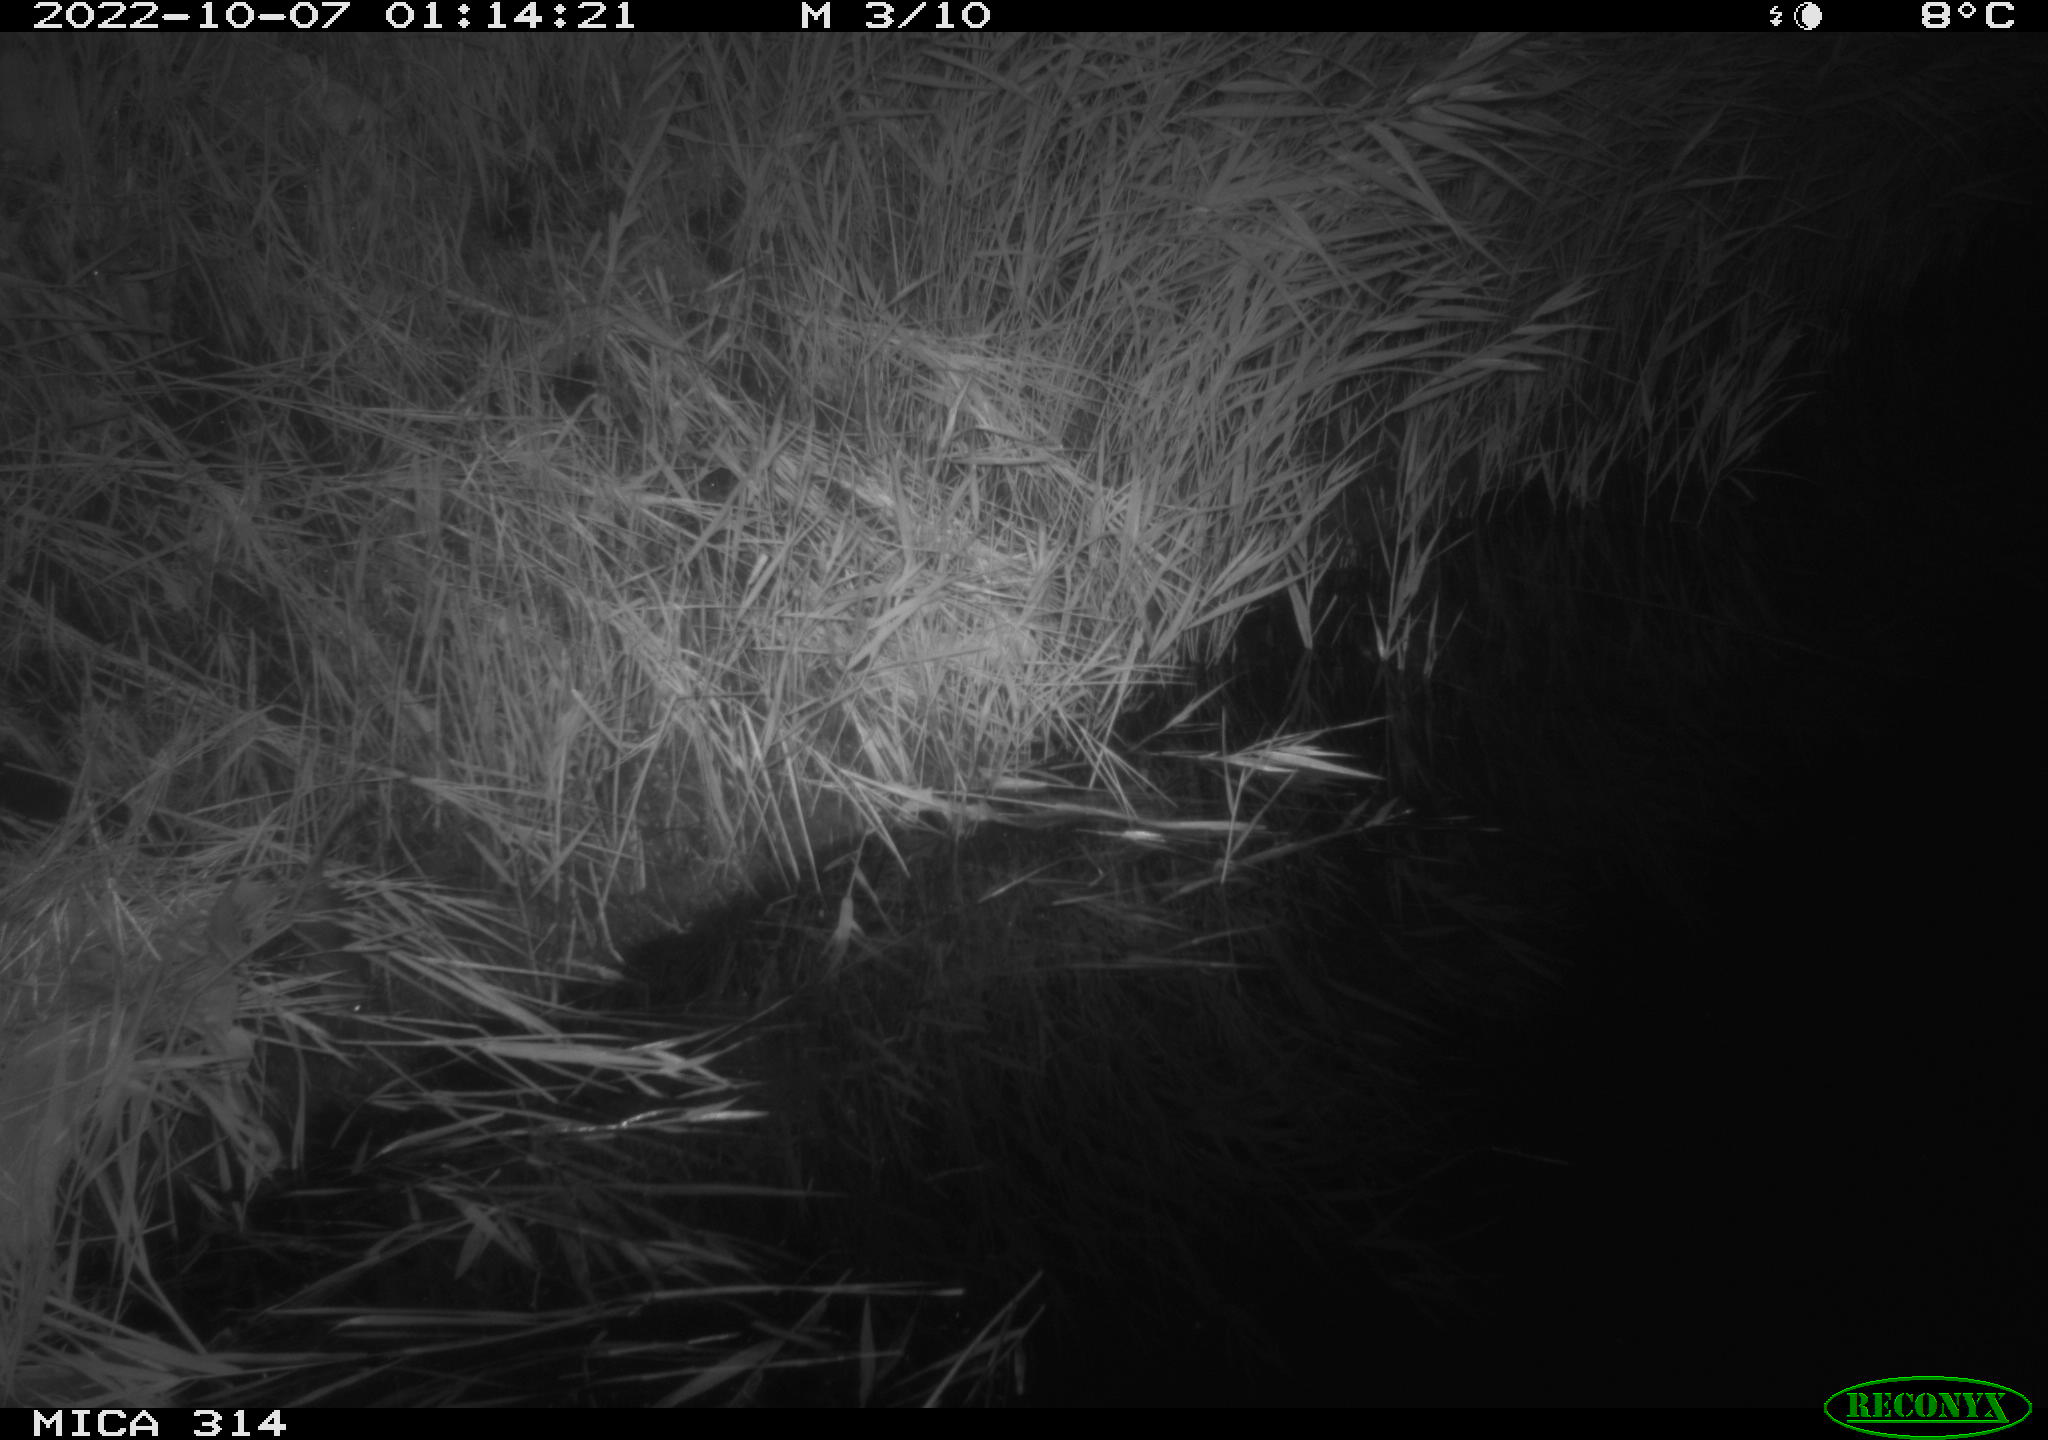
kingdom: Animalia
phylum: Chordata
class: Mammalia
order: Rodentia
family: Muridae
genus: Apodemus
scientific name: Apodemus sylvaticus
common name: Wood mouse
